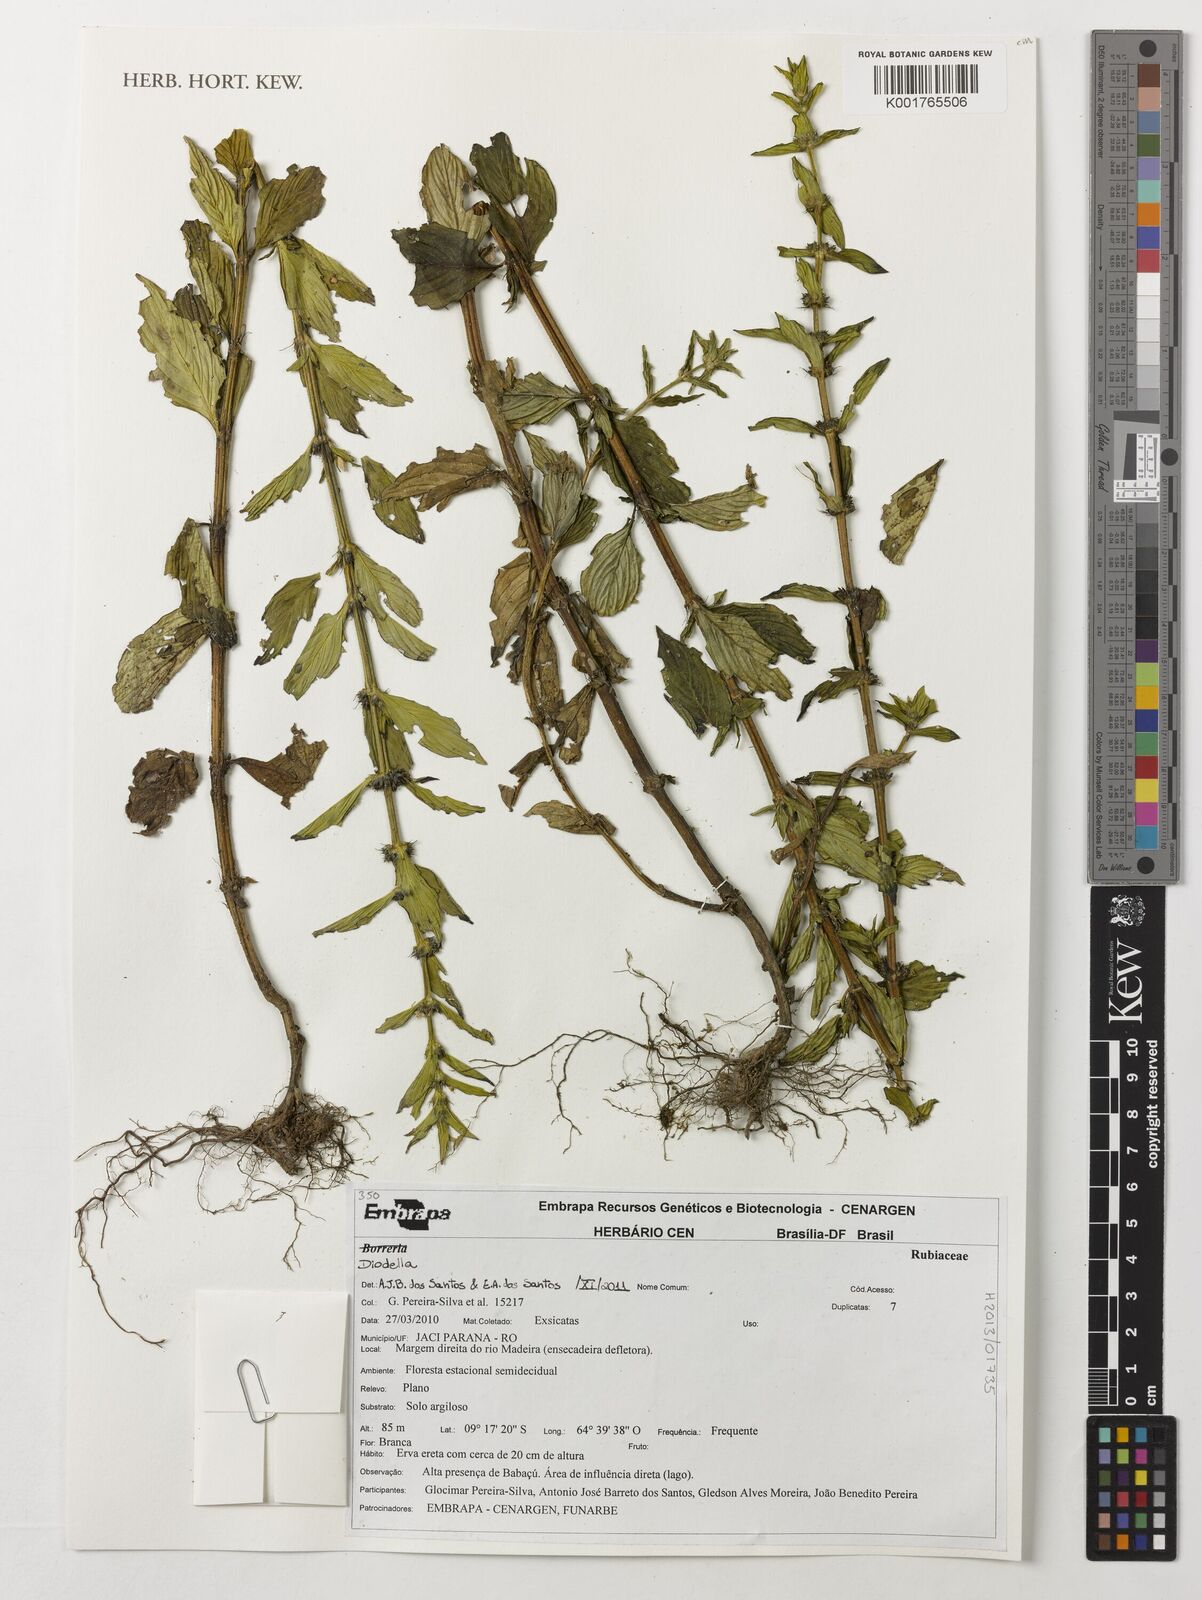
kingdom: Plantae
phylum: Tracheophyta
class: Magnoliopsida
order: Gentianales
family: Rubiaceae
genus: Hexasepalum
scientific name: Hexasepalum
